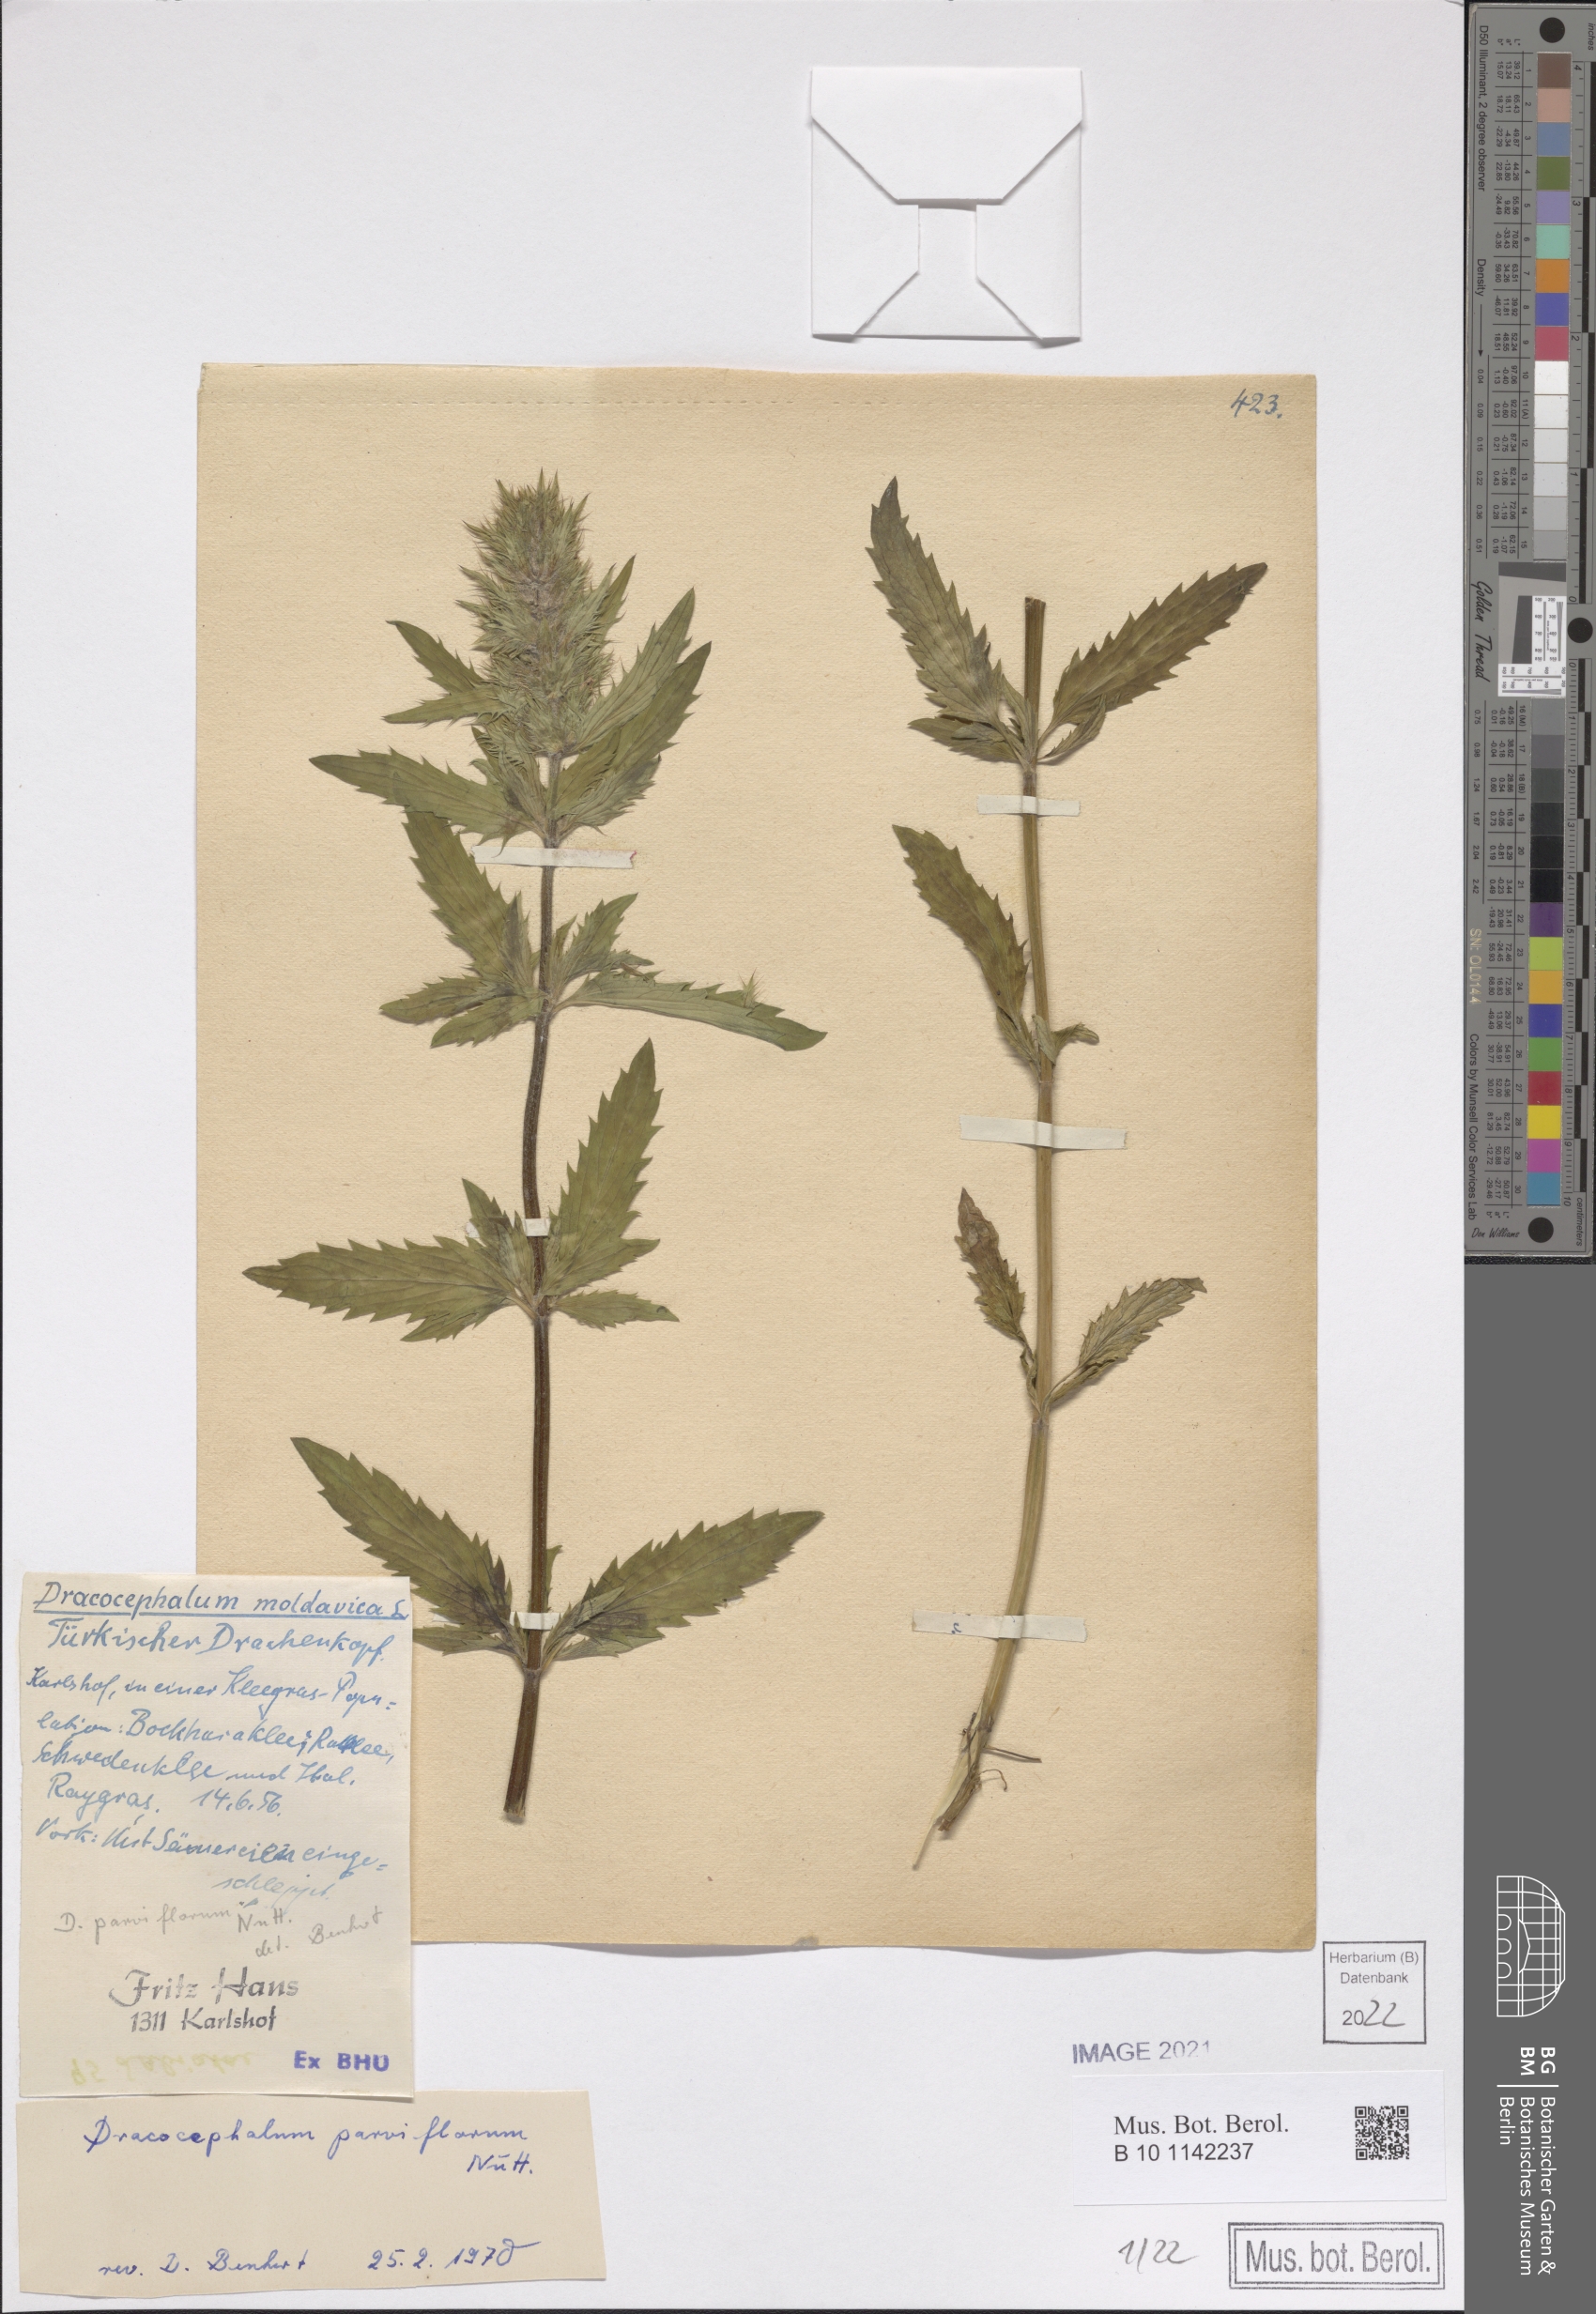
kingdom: Plantae
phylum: Tracheophyta
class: Magnoliopsida
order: Lamiales
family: Lamiaceae
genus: Dracocephalum
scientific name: Dracocephalum parviflorum
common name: American dragonhead
